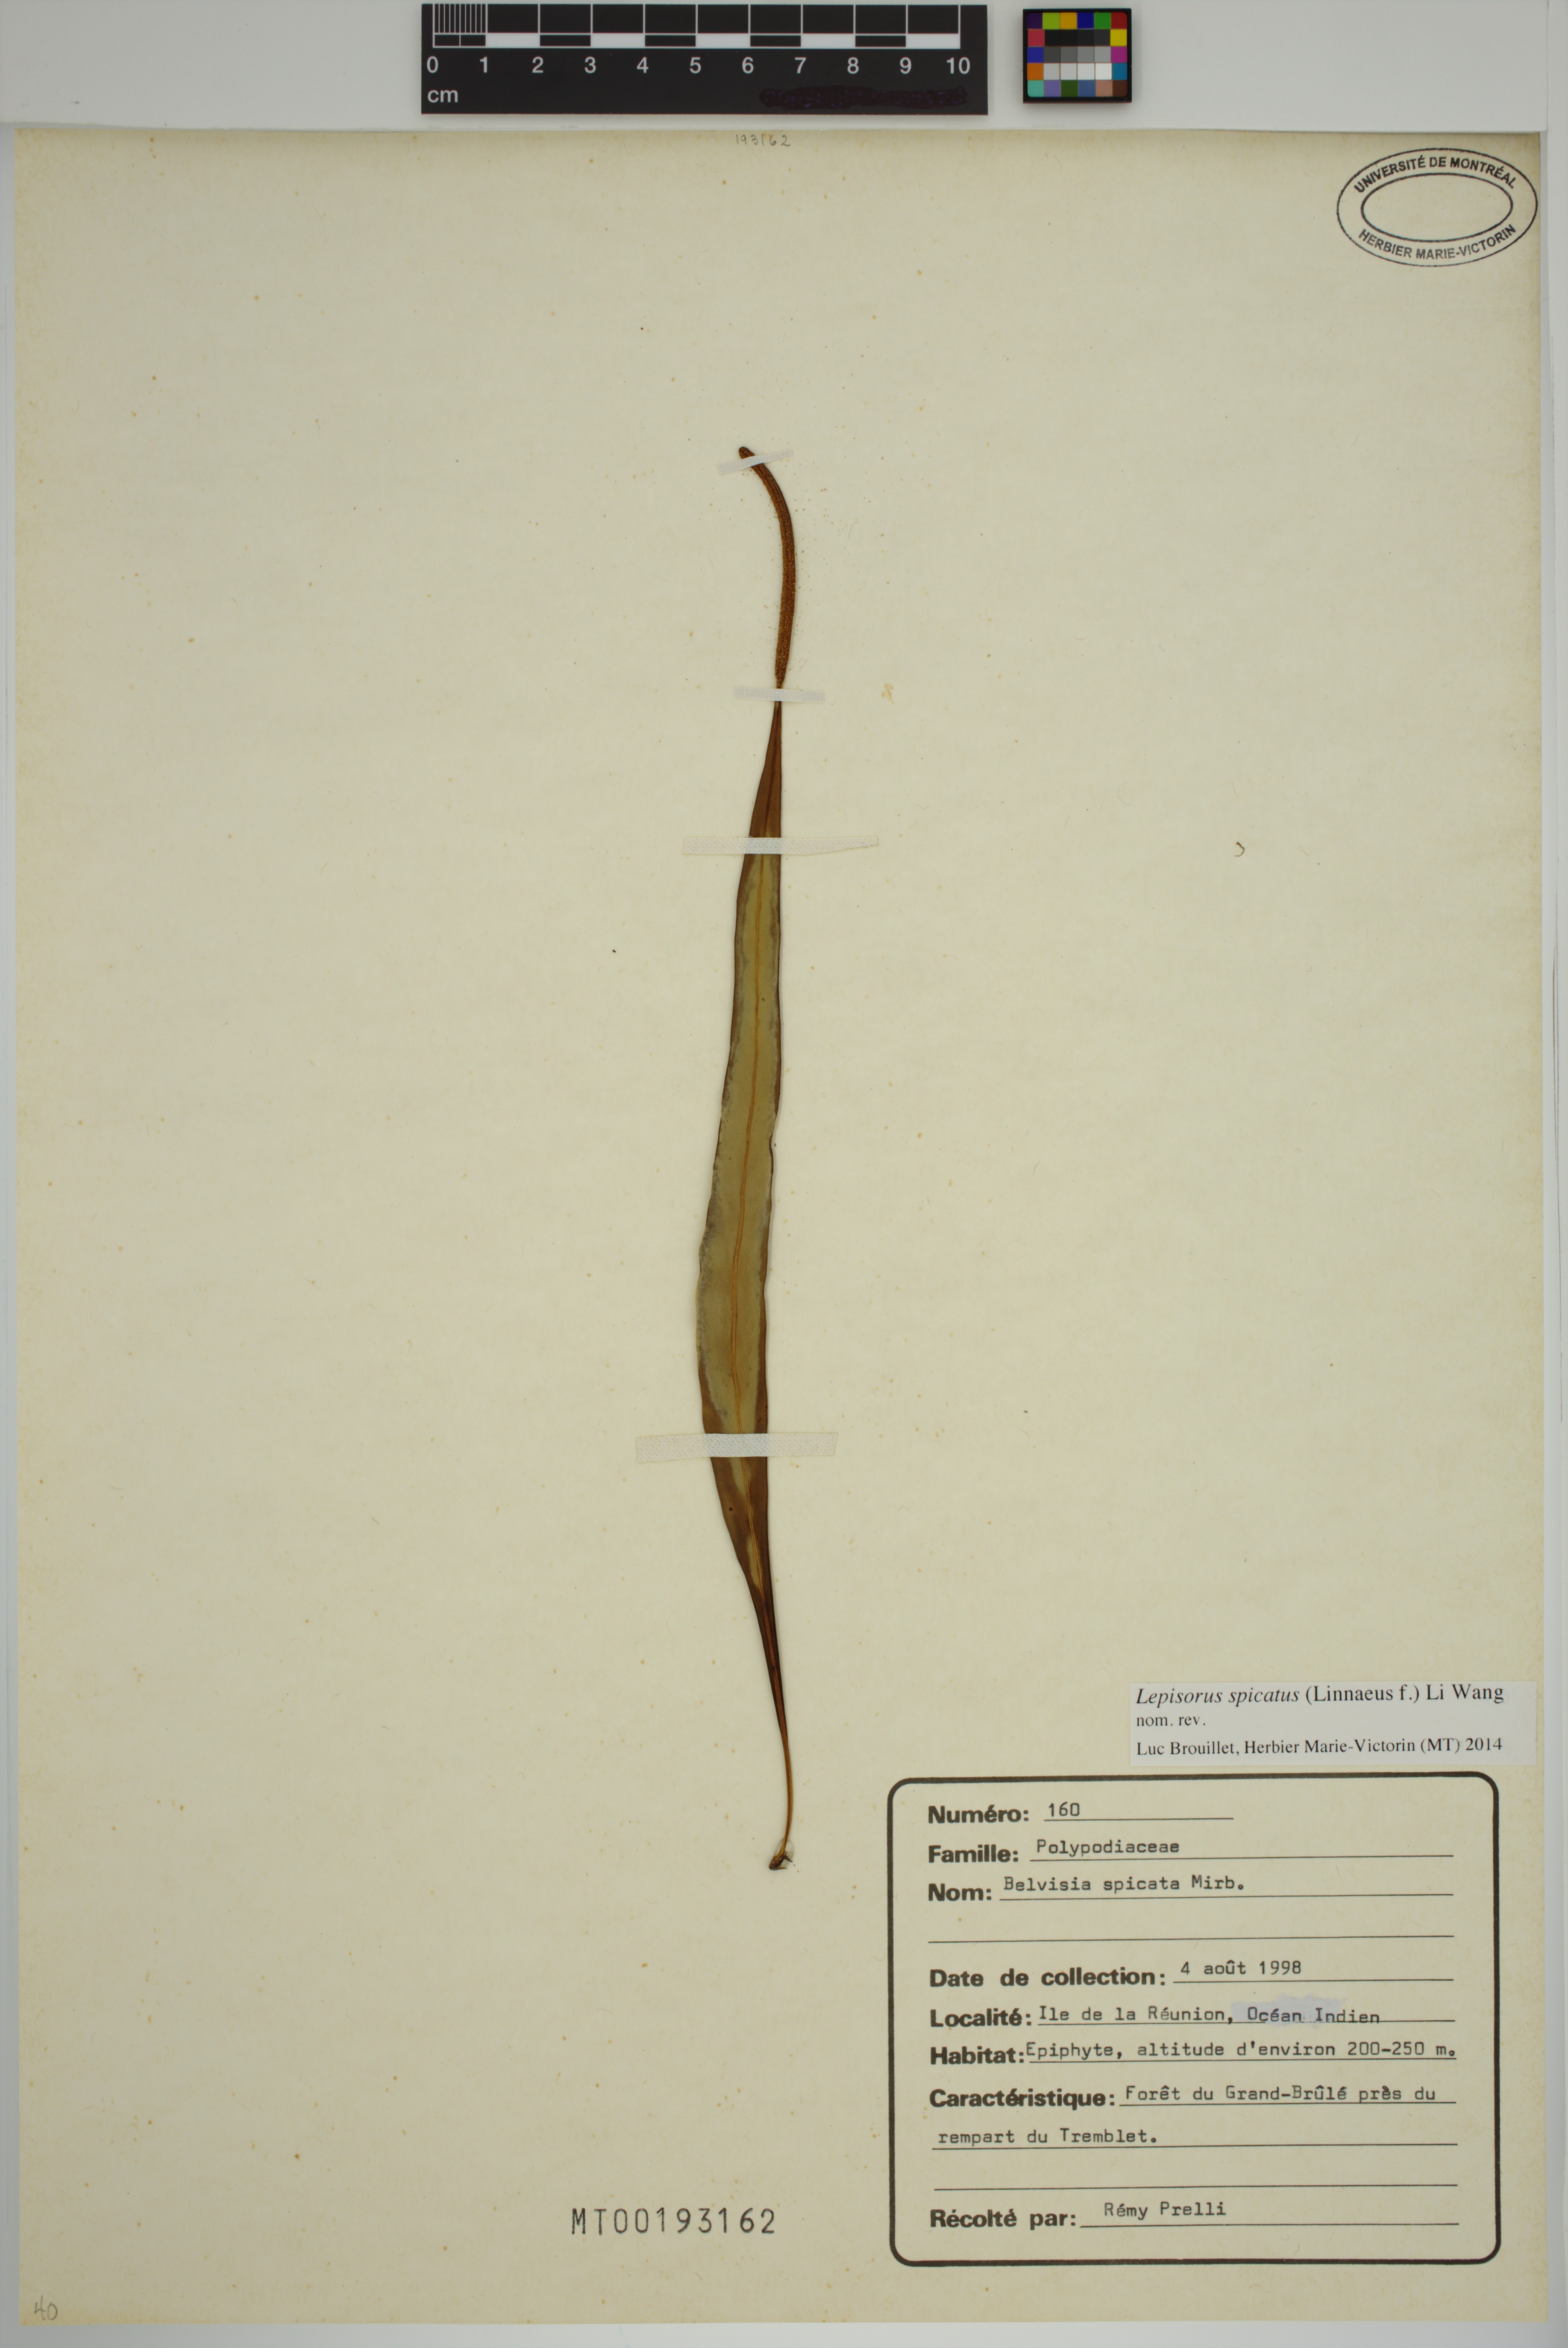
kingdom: Plantae
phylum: Tracheophyta
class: Polypodiopsida
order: Polypodiales
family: Polypodiaceae
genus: Lepisorus
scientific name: Lepisorus spicatus
